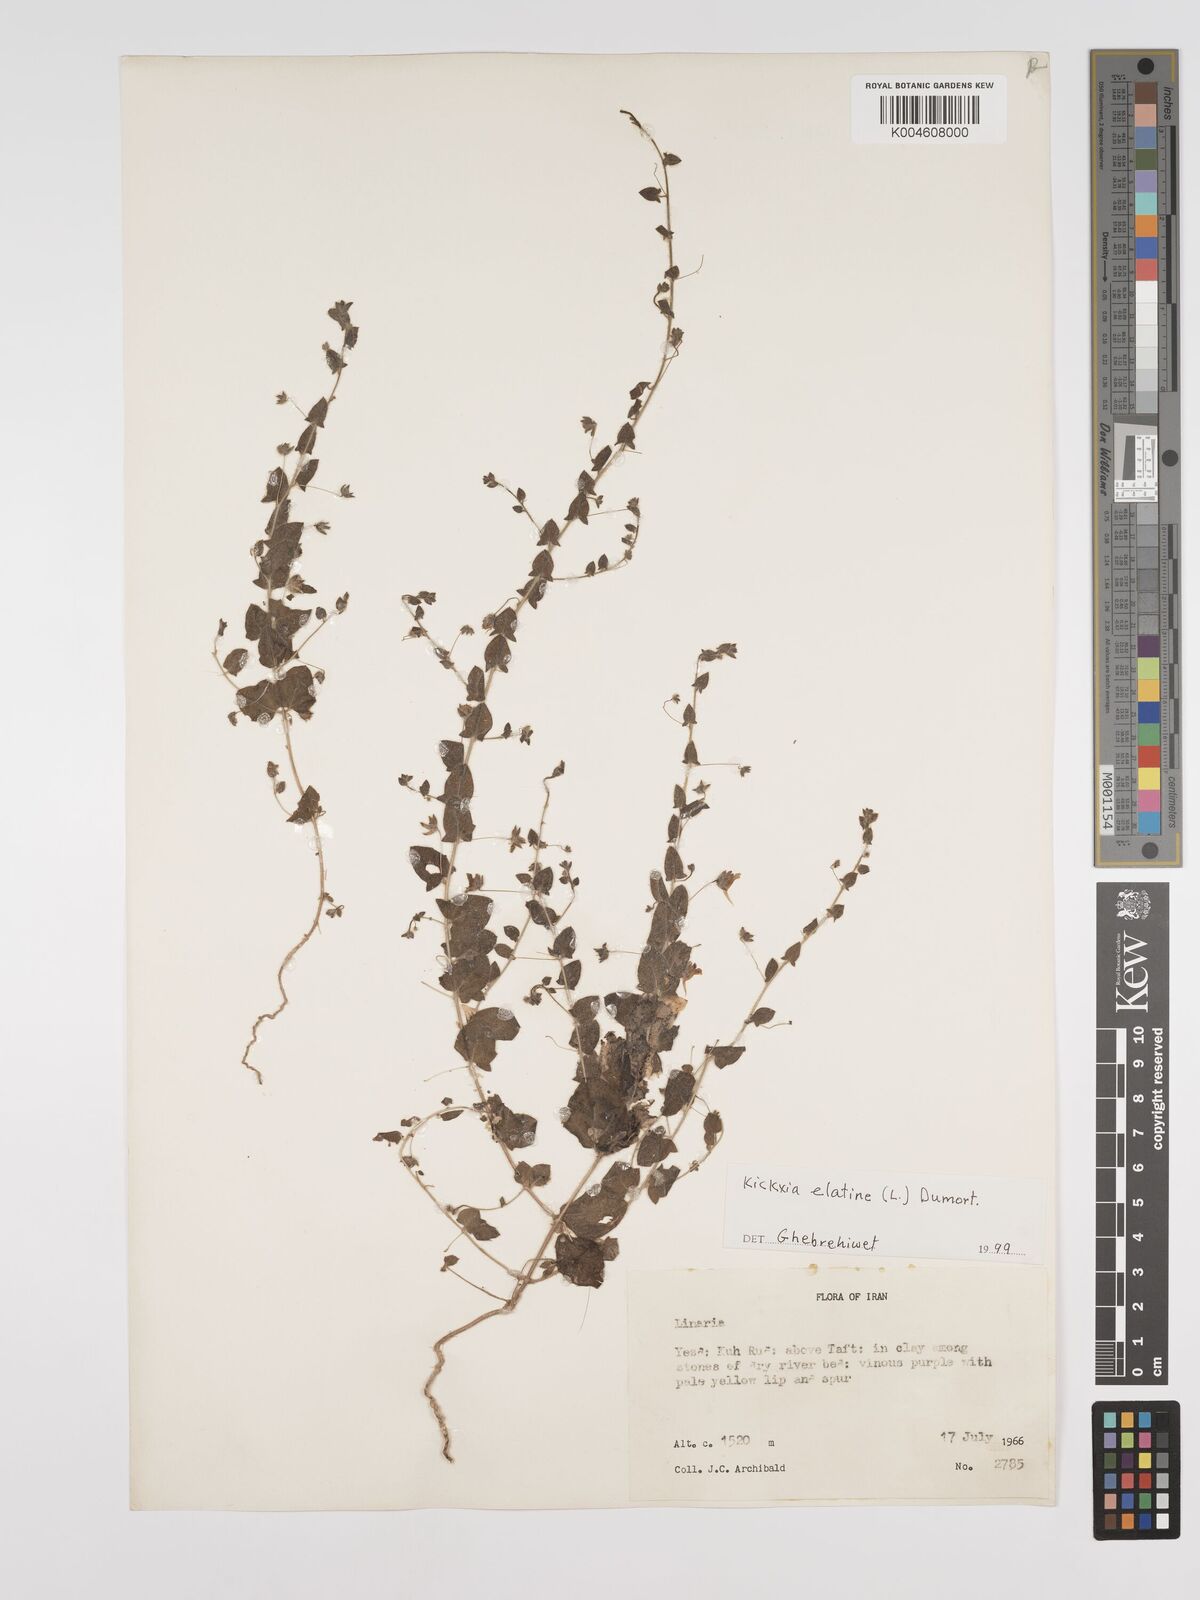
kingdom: Plantae
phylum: Tracheophyta
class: Magnoliopsida
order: Lamiales
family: Plantaginaceae
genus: Kickxia
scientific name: Kickxia elatine
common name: Sharp-leaved fluellen
